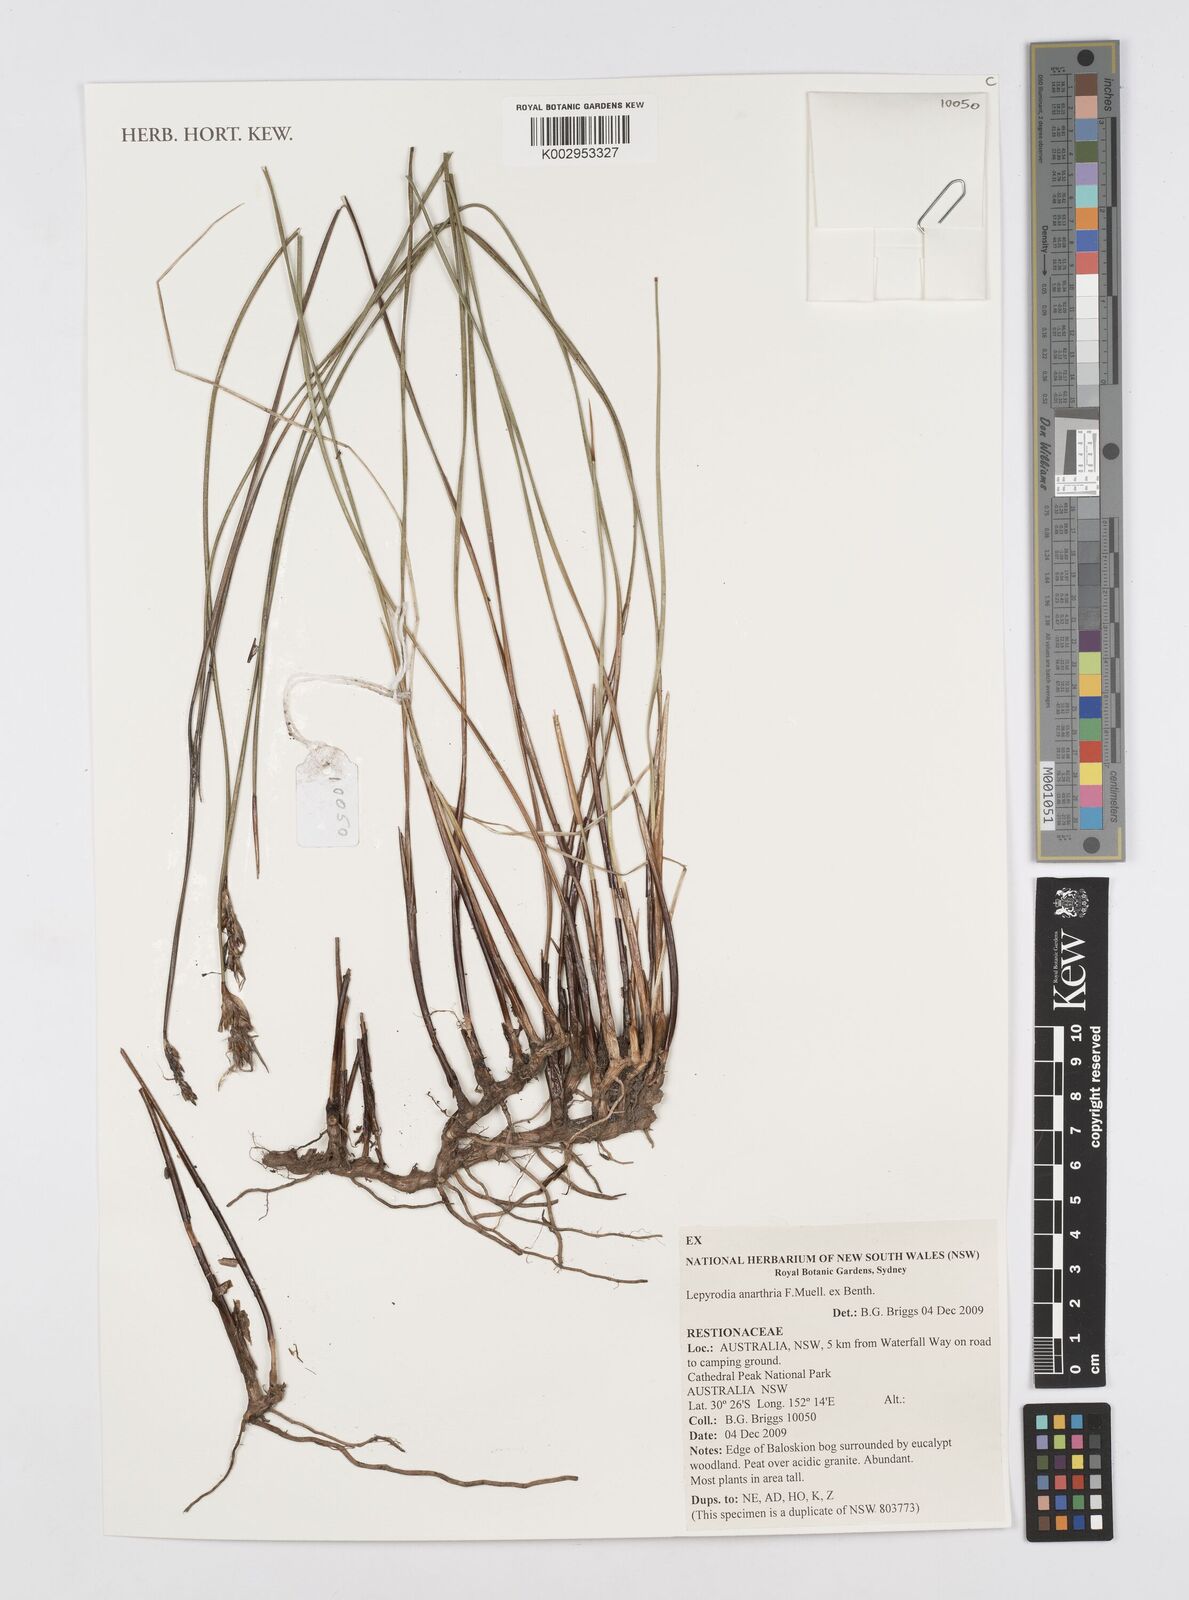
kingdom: Plantae
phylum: Tracheophyta
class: Liliopsida
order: Poales
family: Restionaceae
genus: Lepyrodia
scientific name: Lepyrodia anarthria
